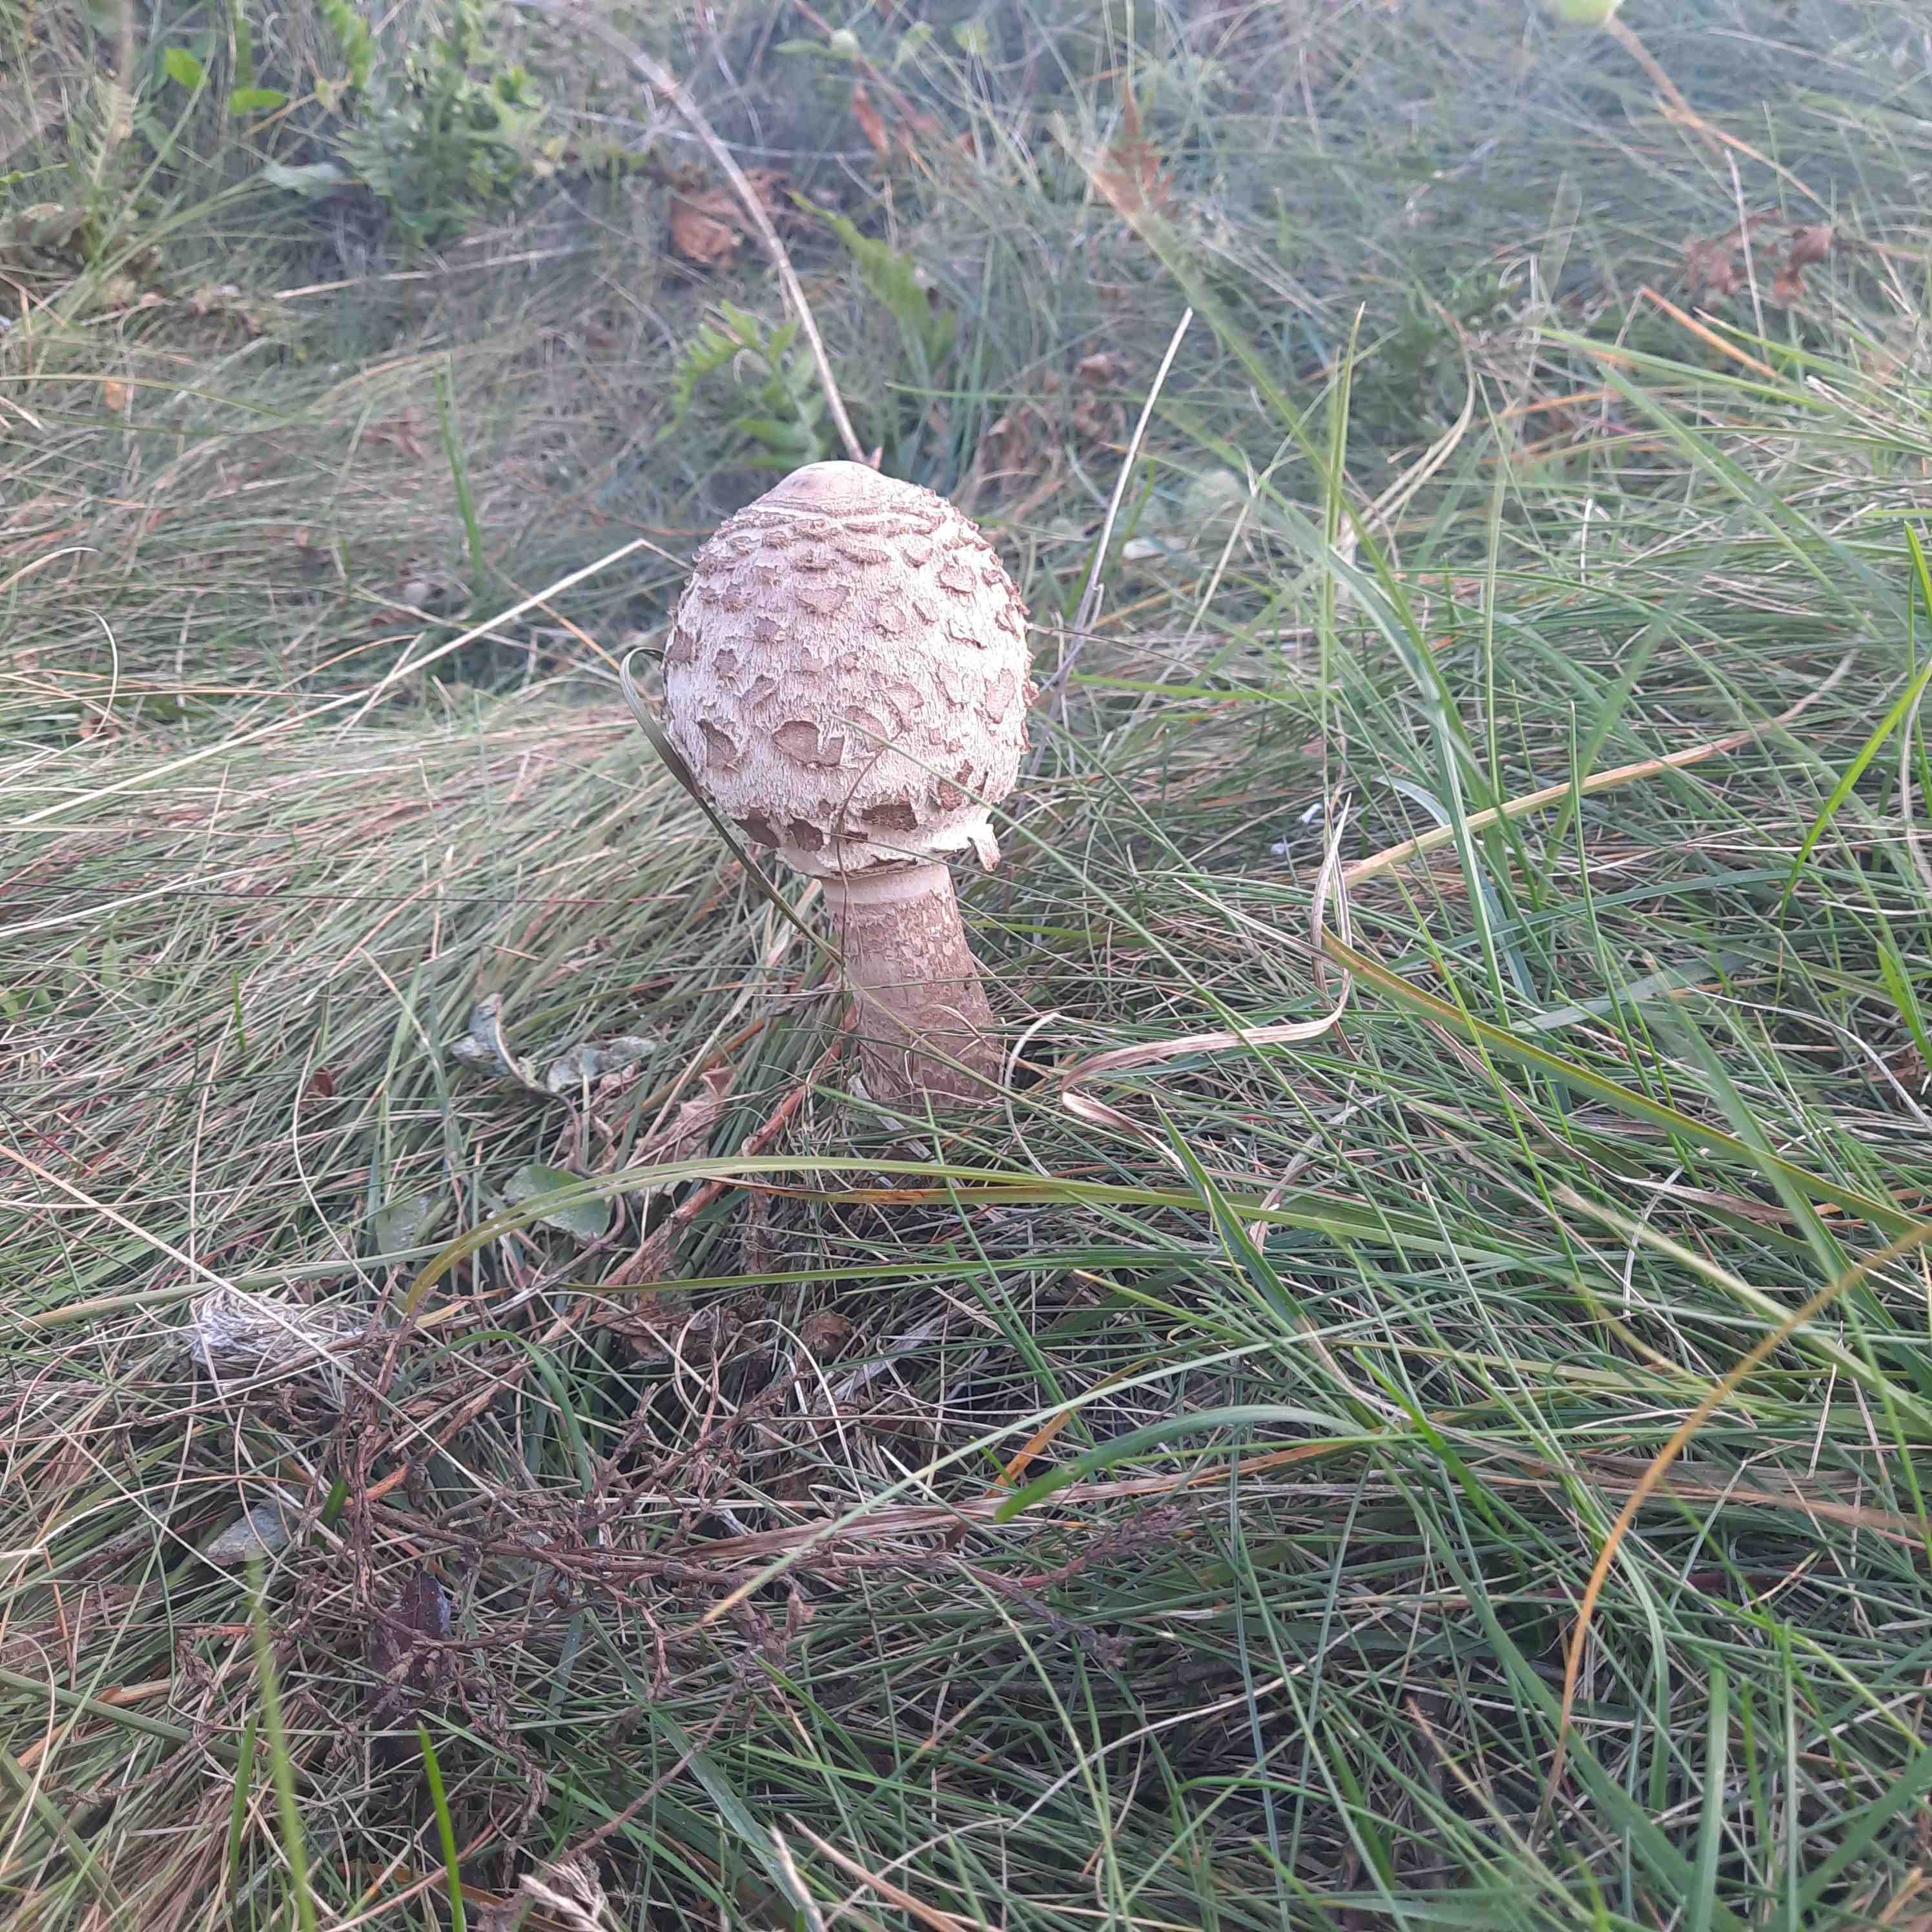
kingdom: Fungi
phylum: Basidiomycota
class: Agaricomycetes
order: Agaricales
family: Agaricaceae
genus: Macrolepiota
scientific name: Macrolepiota
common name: kæmpeparasolhat
